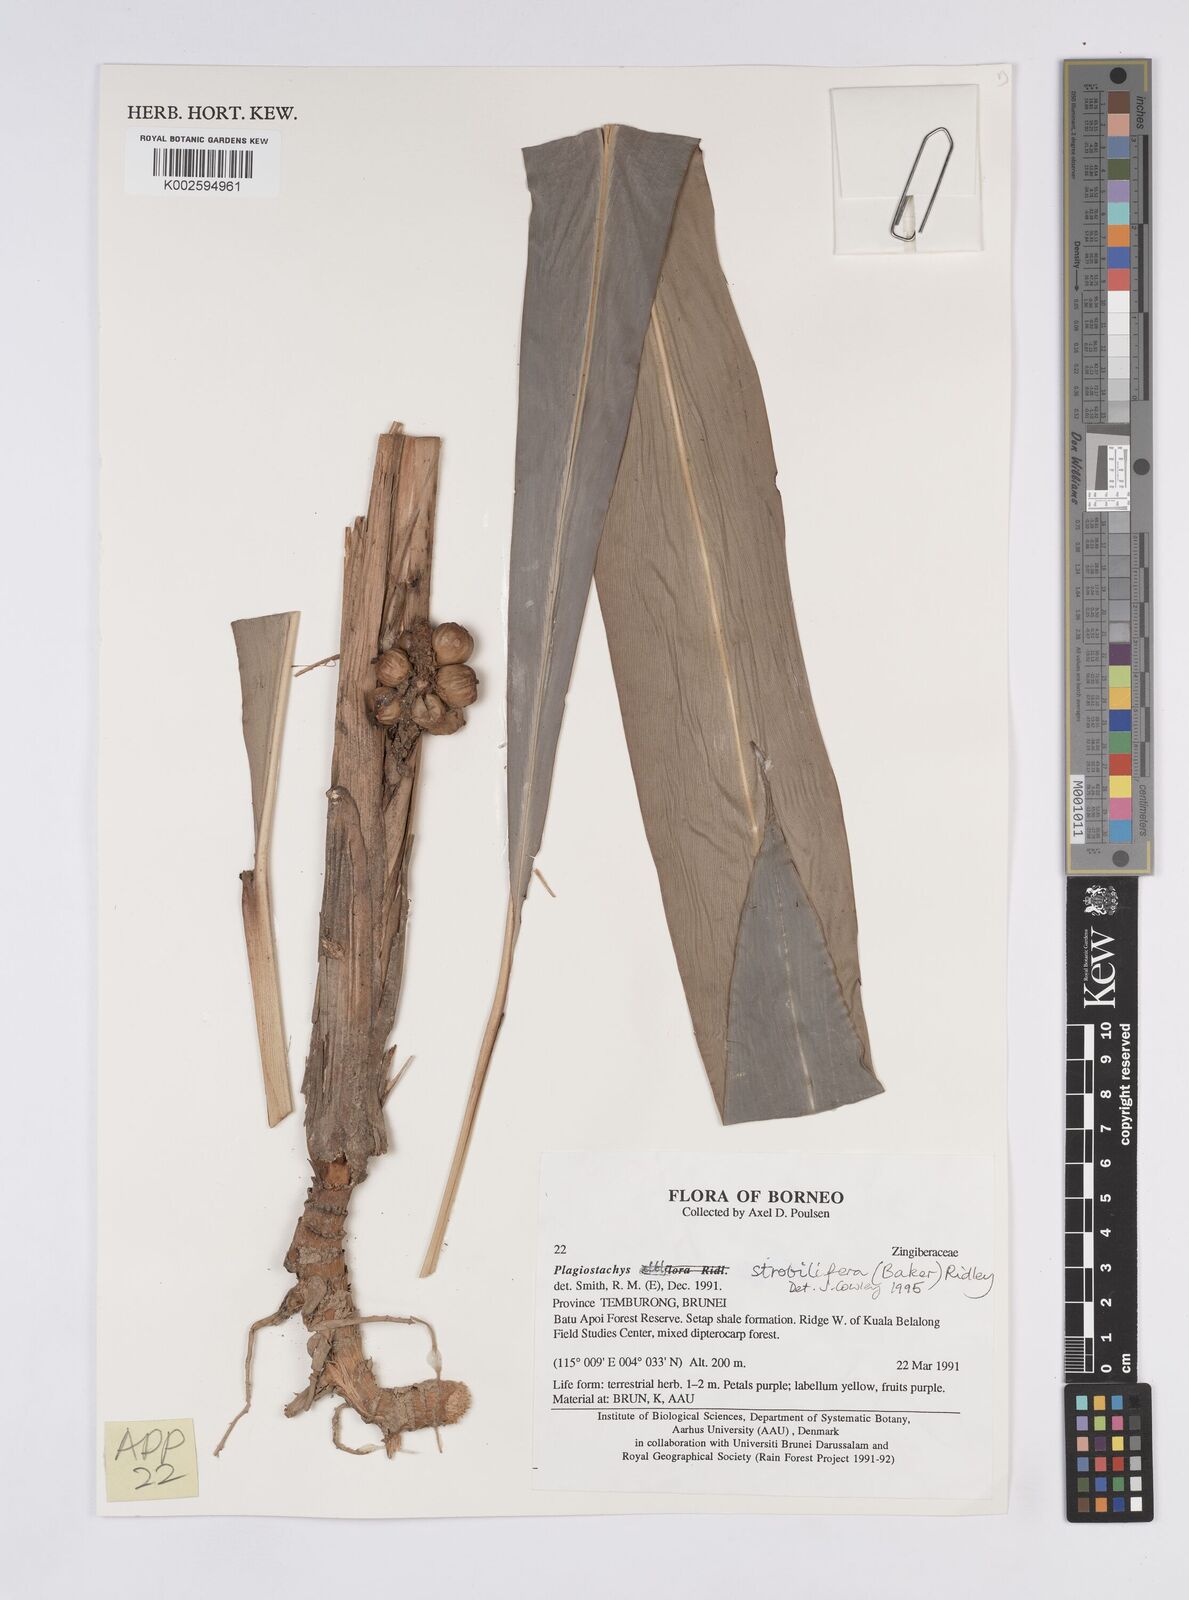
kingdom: Plantae
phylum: Tracheophyta
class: Liliopsida
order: Zingiberales
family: Zingiberaceae
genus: Plagiostachys
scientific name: Plagiostachys strobilifera
